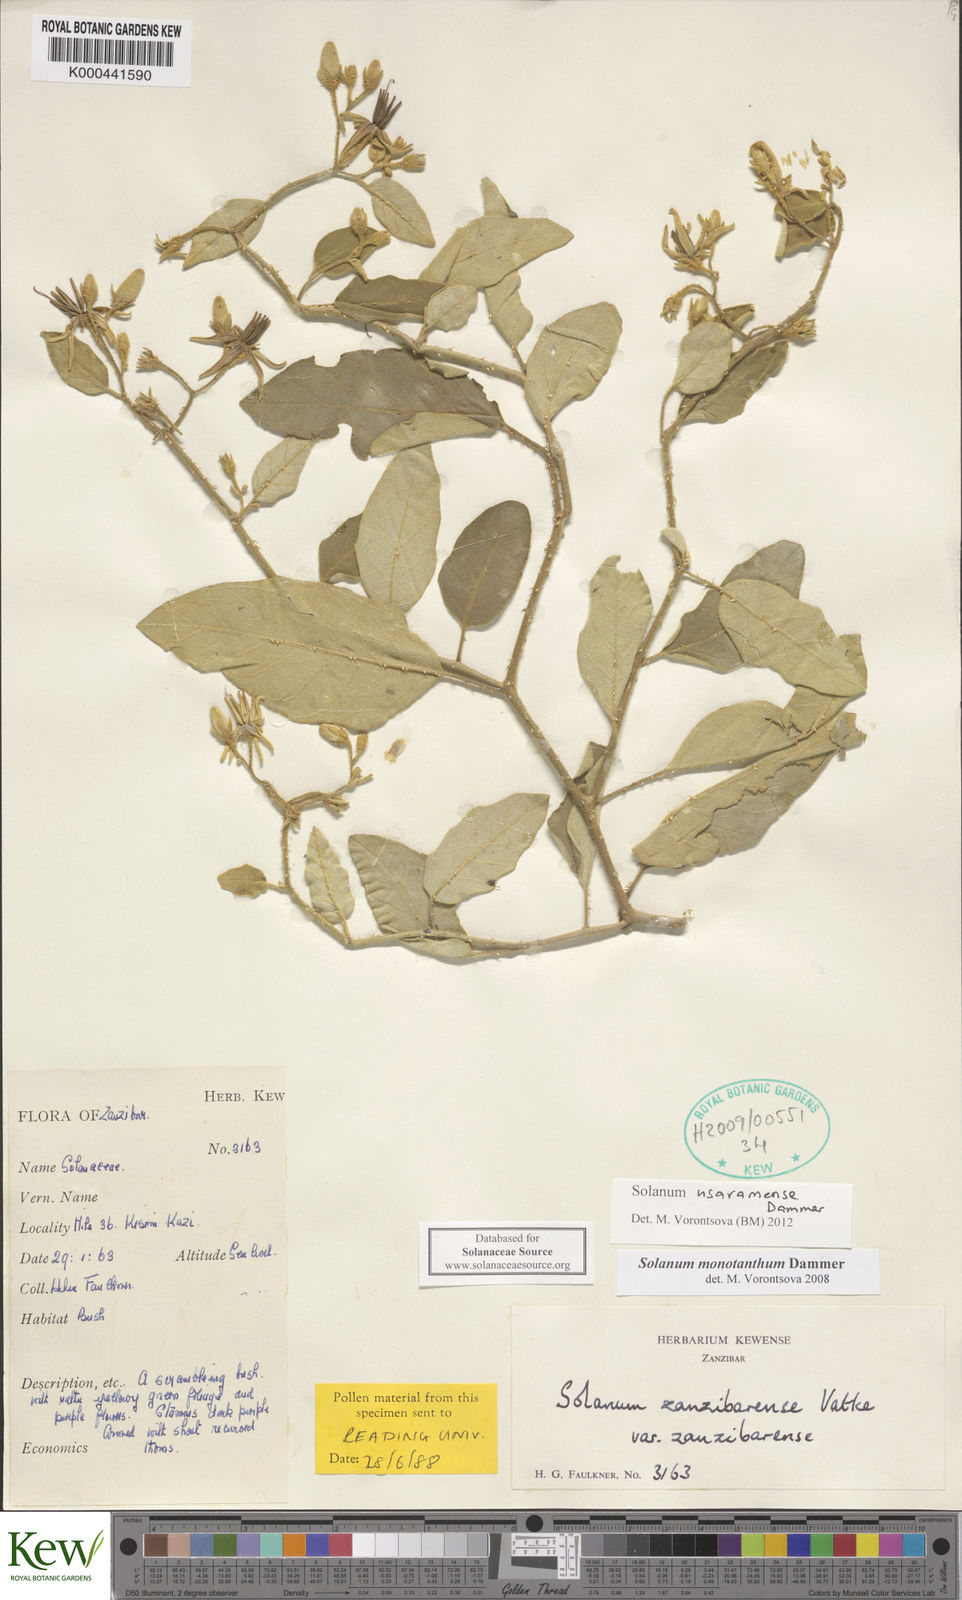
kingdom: Plantae
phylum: Tracheophyta
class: Magnoliopsida
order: Solanales
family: Solanaceae
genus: Solanum
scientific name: Solanum usaramense
